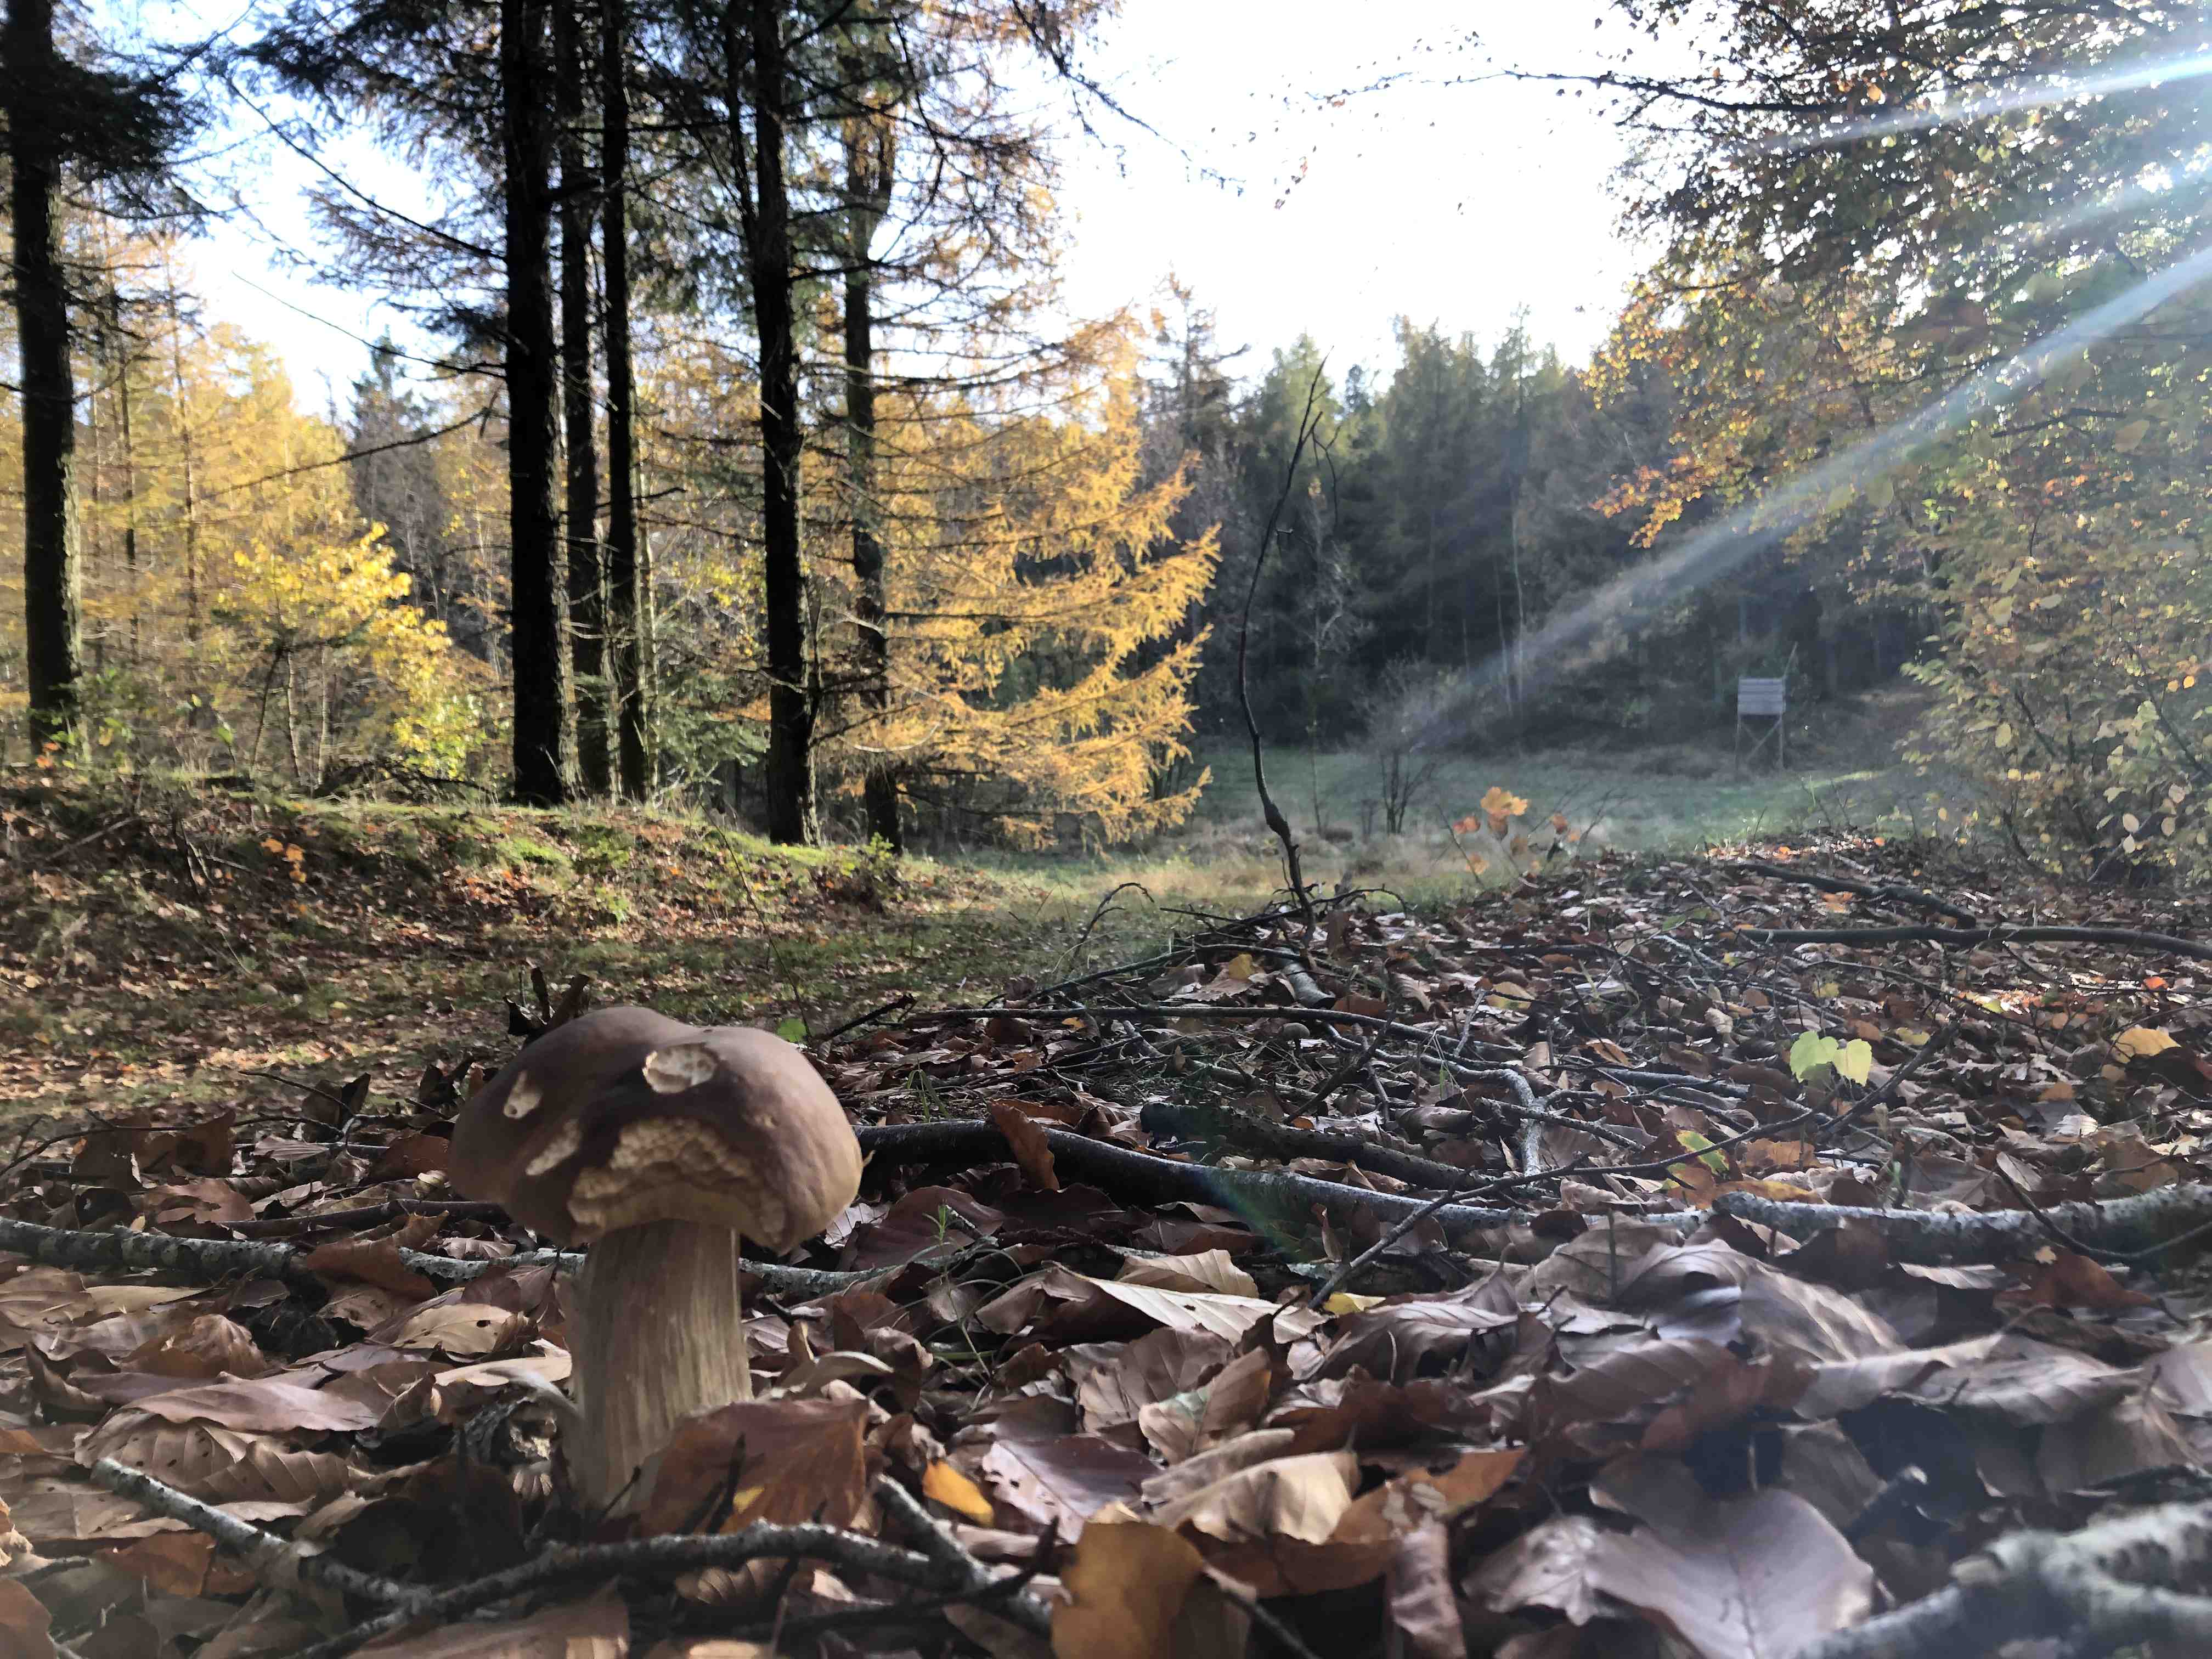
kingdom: Fungi
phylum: Basidiomycota
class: Agaricomycetes
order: Boletales
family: Boletaceae
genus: Boletus
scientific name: Boletus edulis
